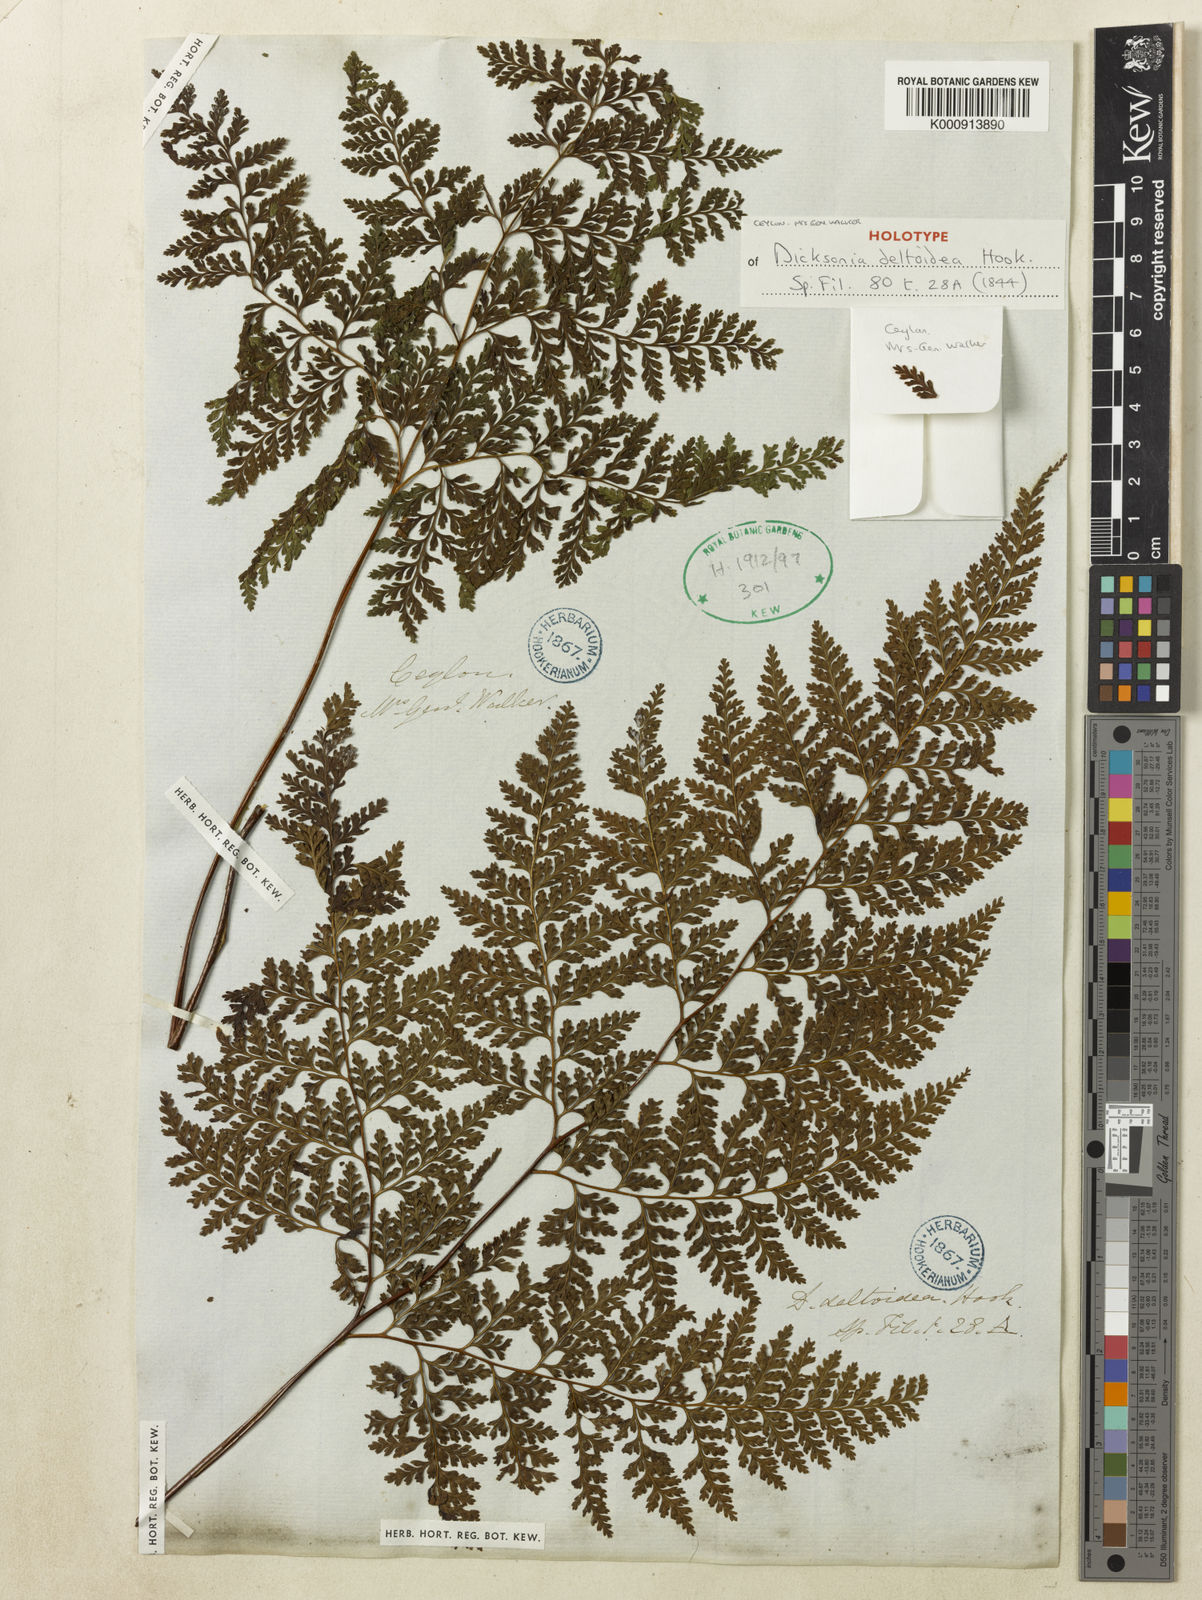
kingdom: Plantae
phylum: Tracheophyta
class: Polypodiopsida
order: Polypodiales
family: Dennstaedtiaceae
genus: Sitobolium
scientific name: Sitobolium zeylanicum
